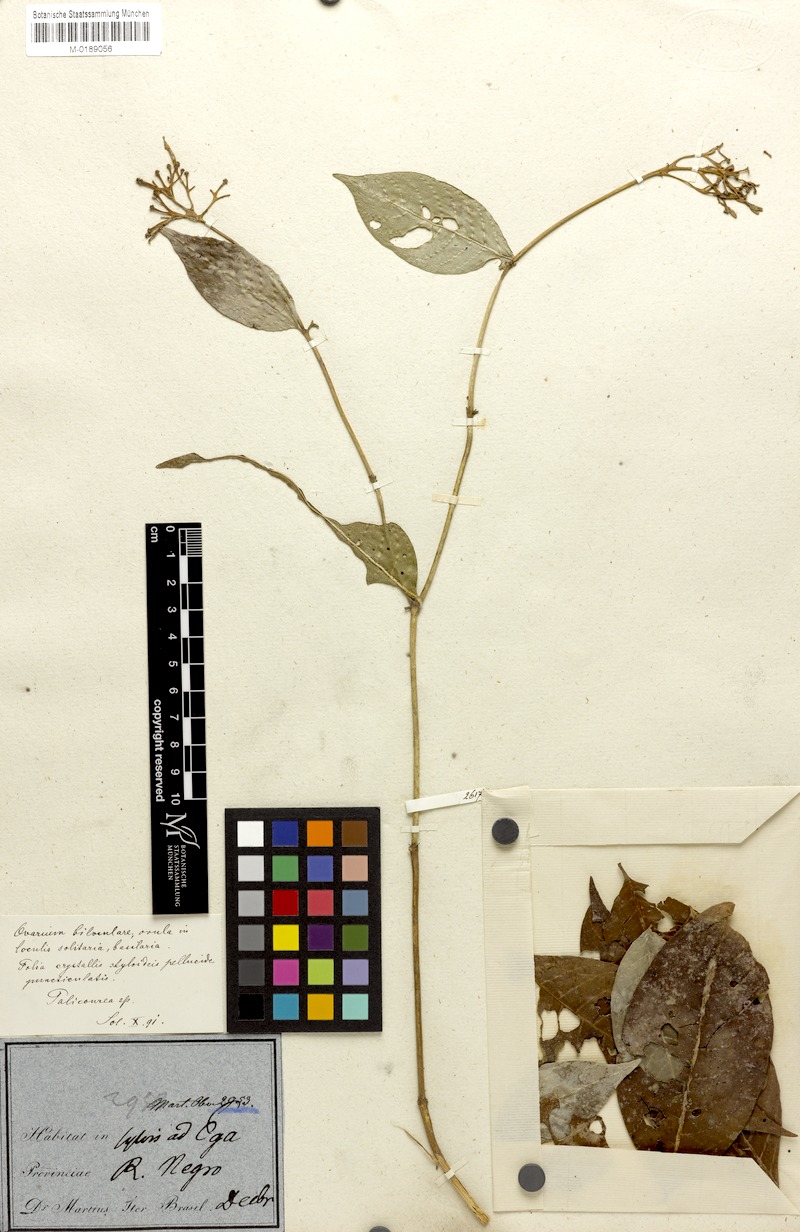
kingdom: Plantae
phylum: Tracheophyta
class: Magnoliopsida
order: Gentianales
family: Rubiaceae
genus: Psychotria
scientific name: Psychotria
